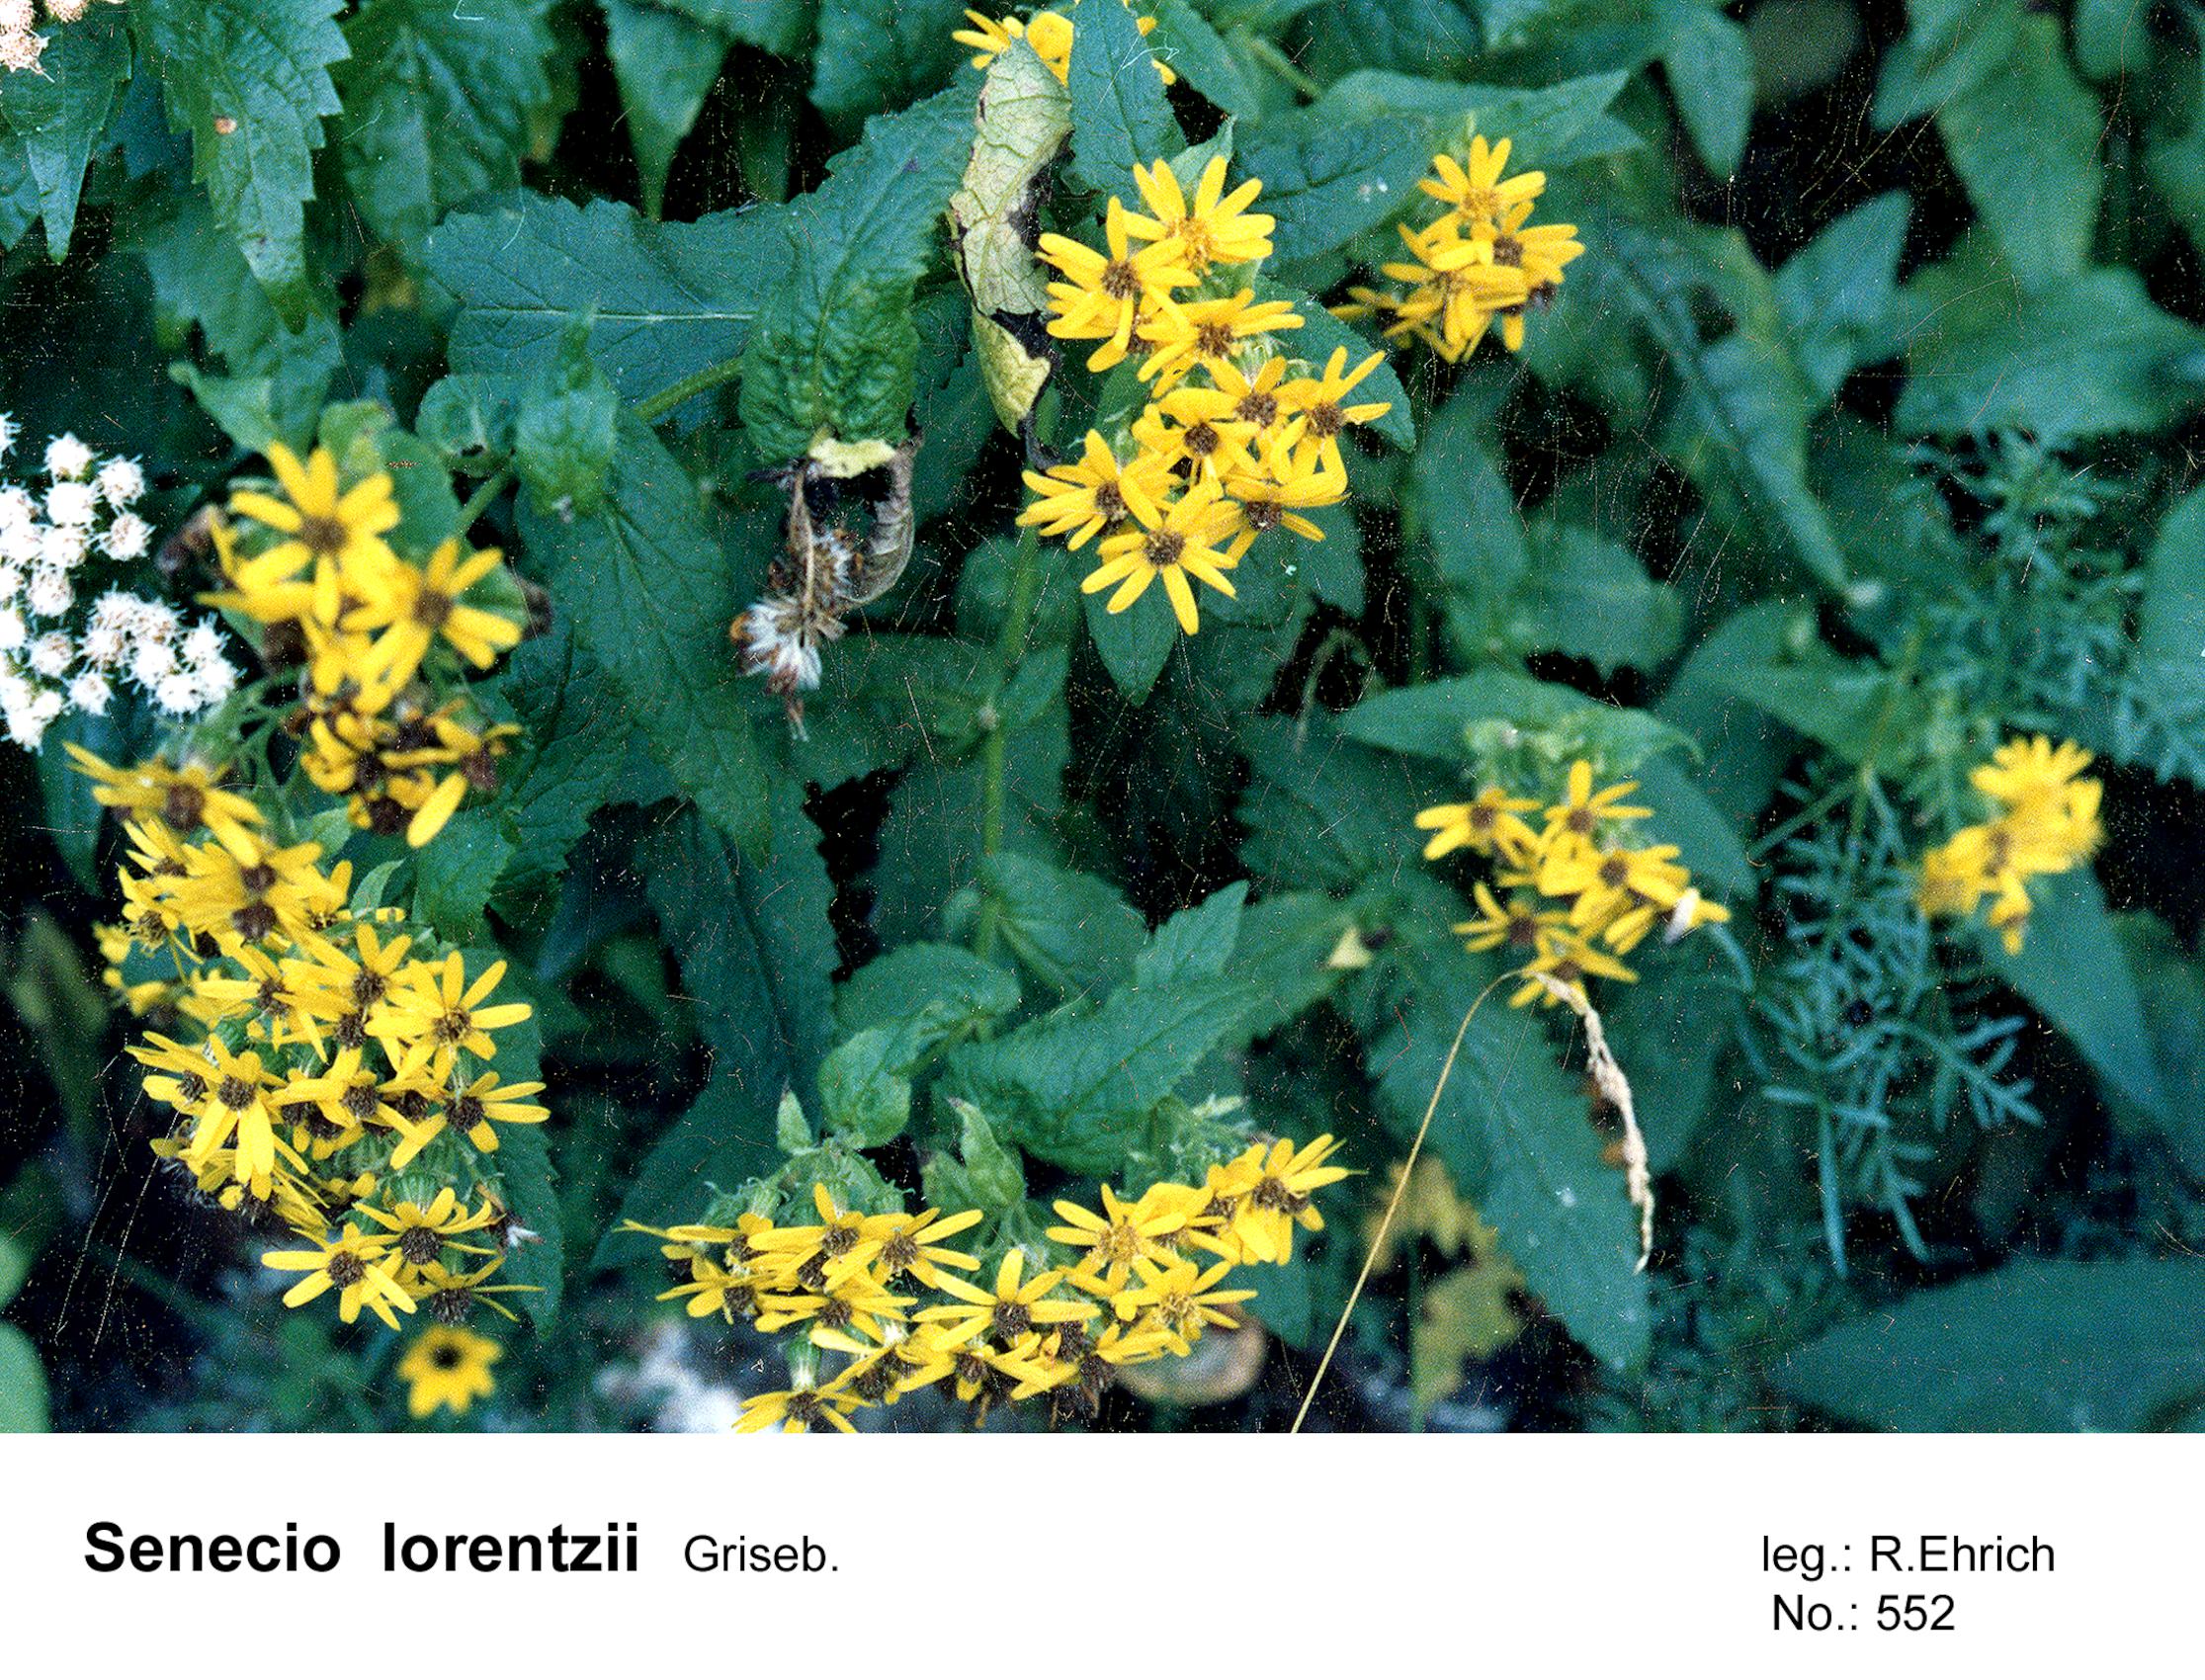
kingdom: Plantae
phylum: Tracheophyta
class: Magnoliopsida
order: Asterales
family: Asteraceae
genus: Senecio
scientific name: Senecio lorentzii
